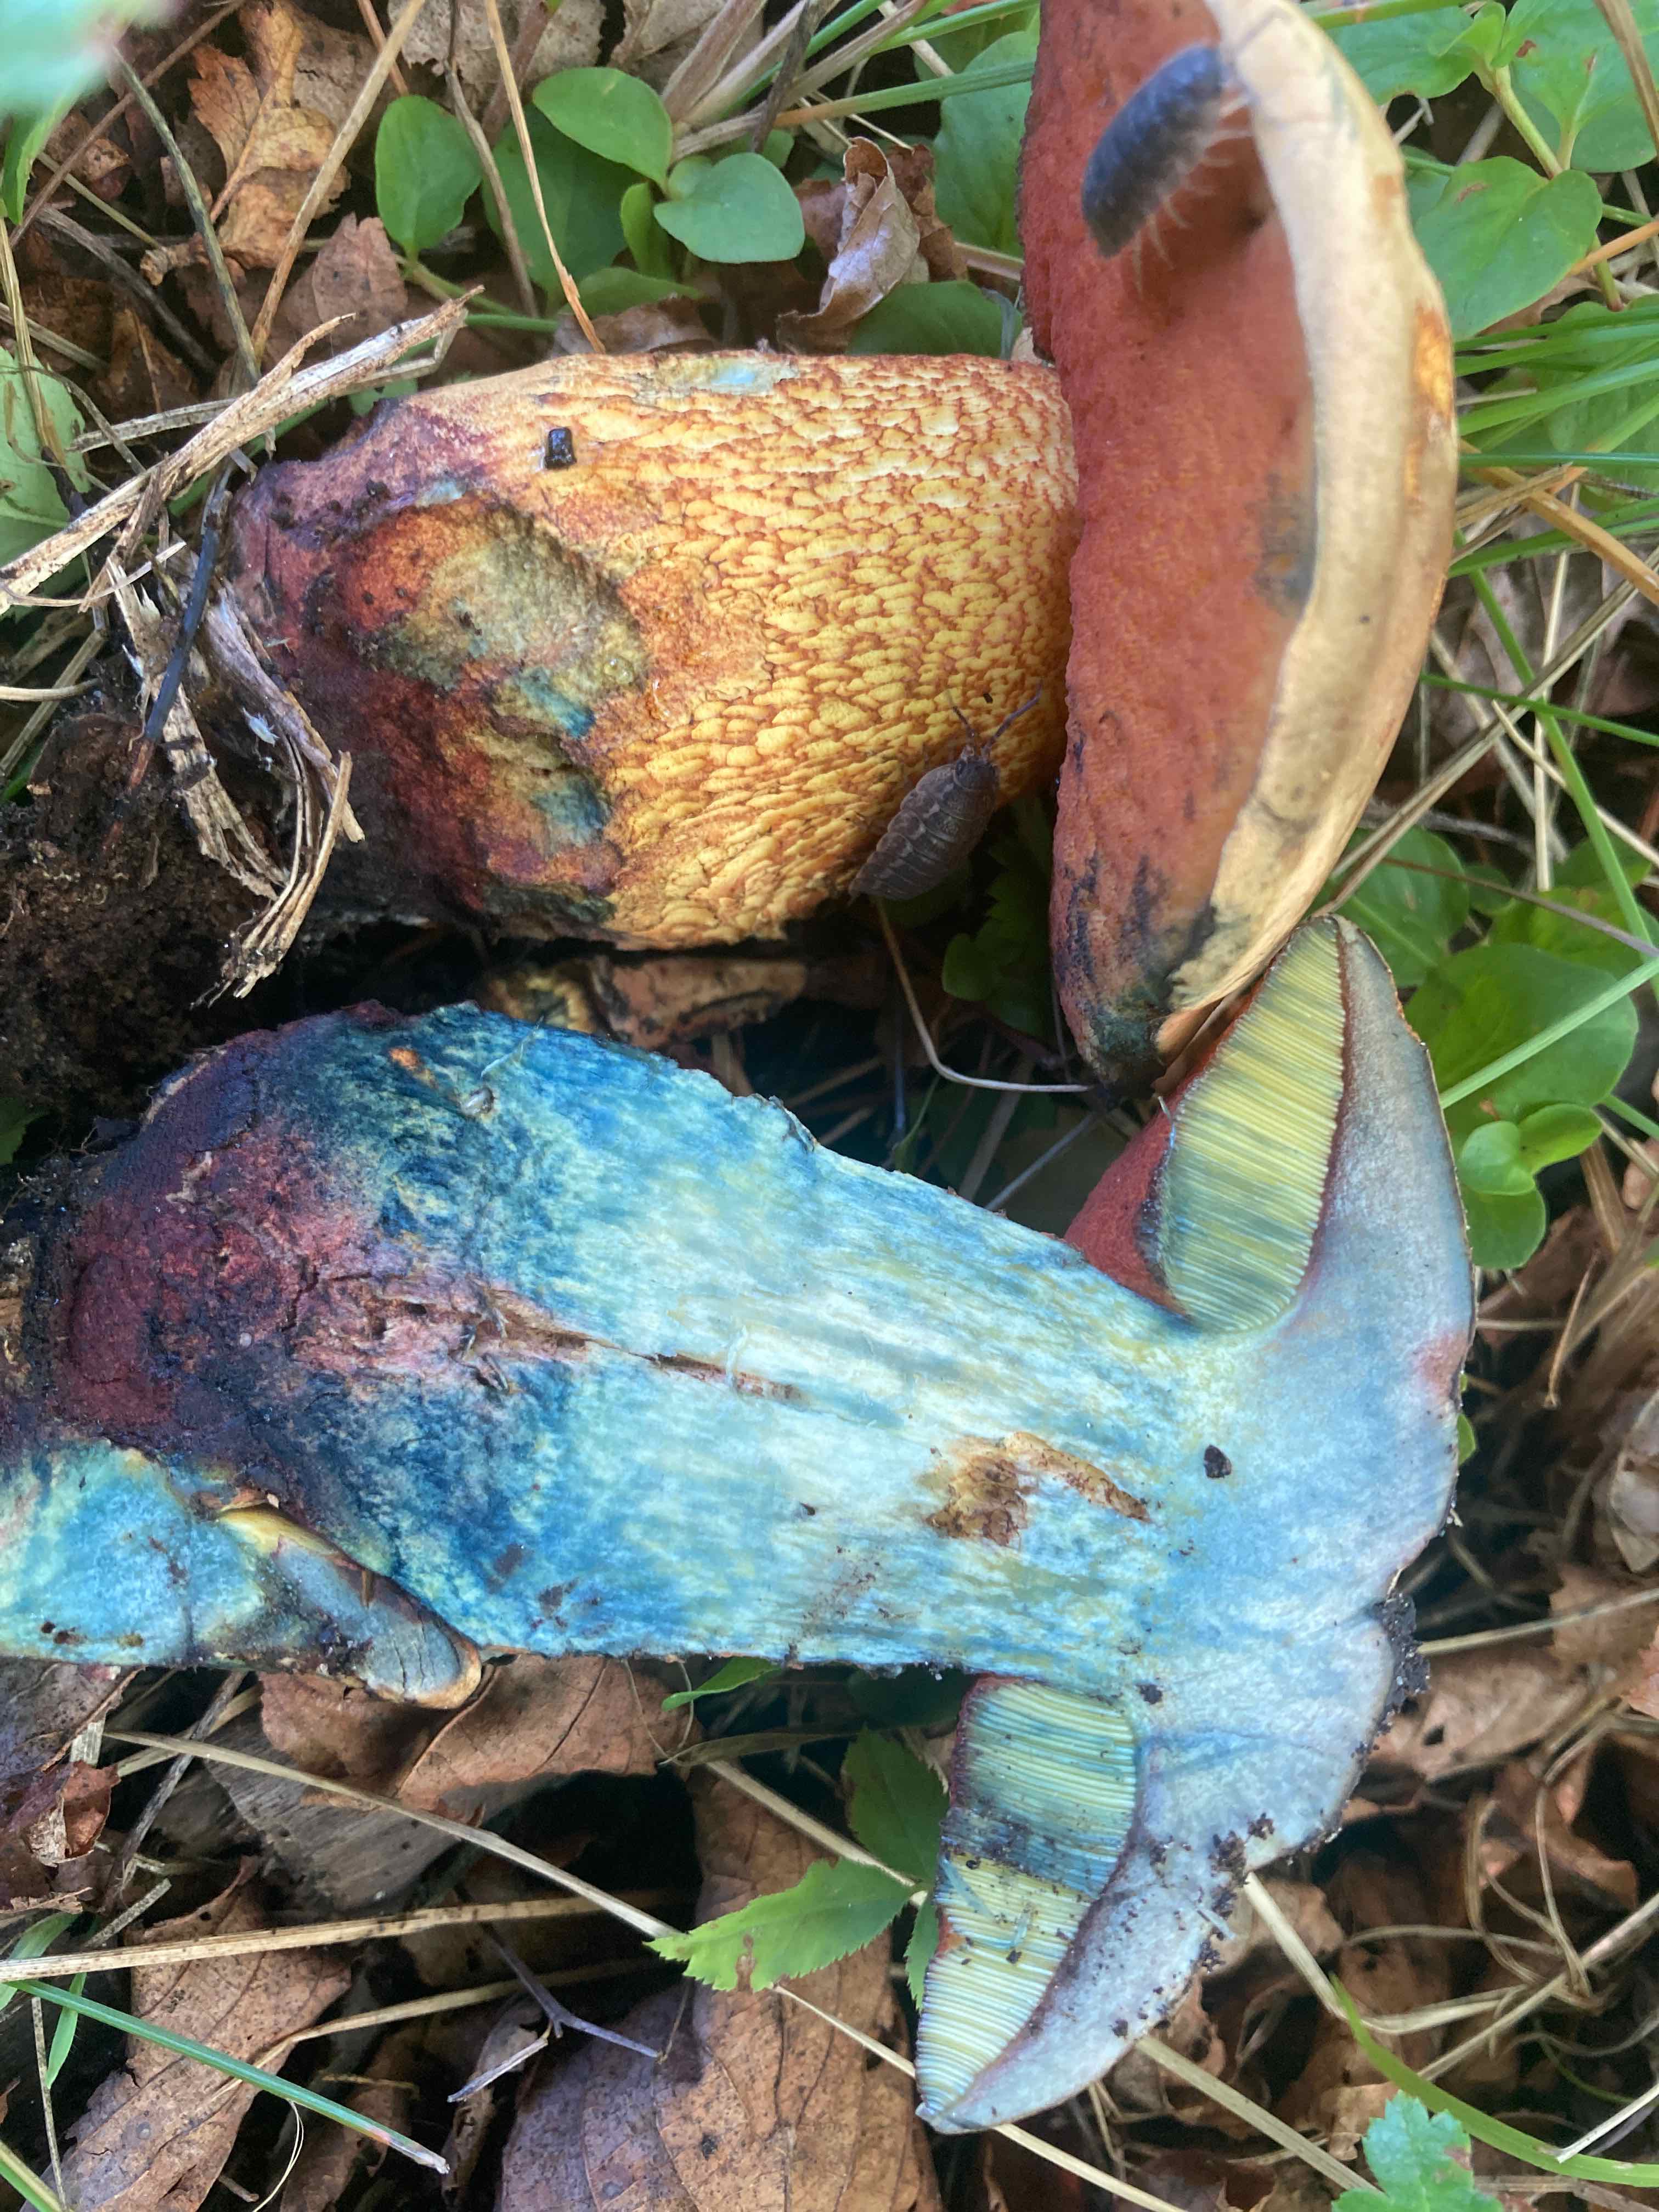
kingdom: Fungi
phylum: Basidiomycota
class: Agaricomycetes
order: Boletales
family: Boletaceae
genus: Suillellus
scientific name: Suillellus luridus
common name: netstokket indigorørhat
